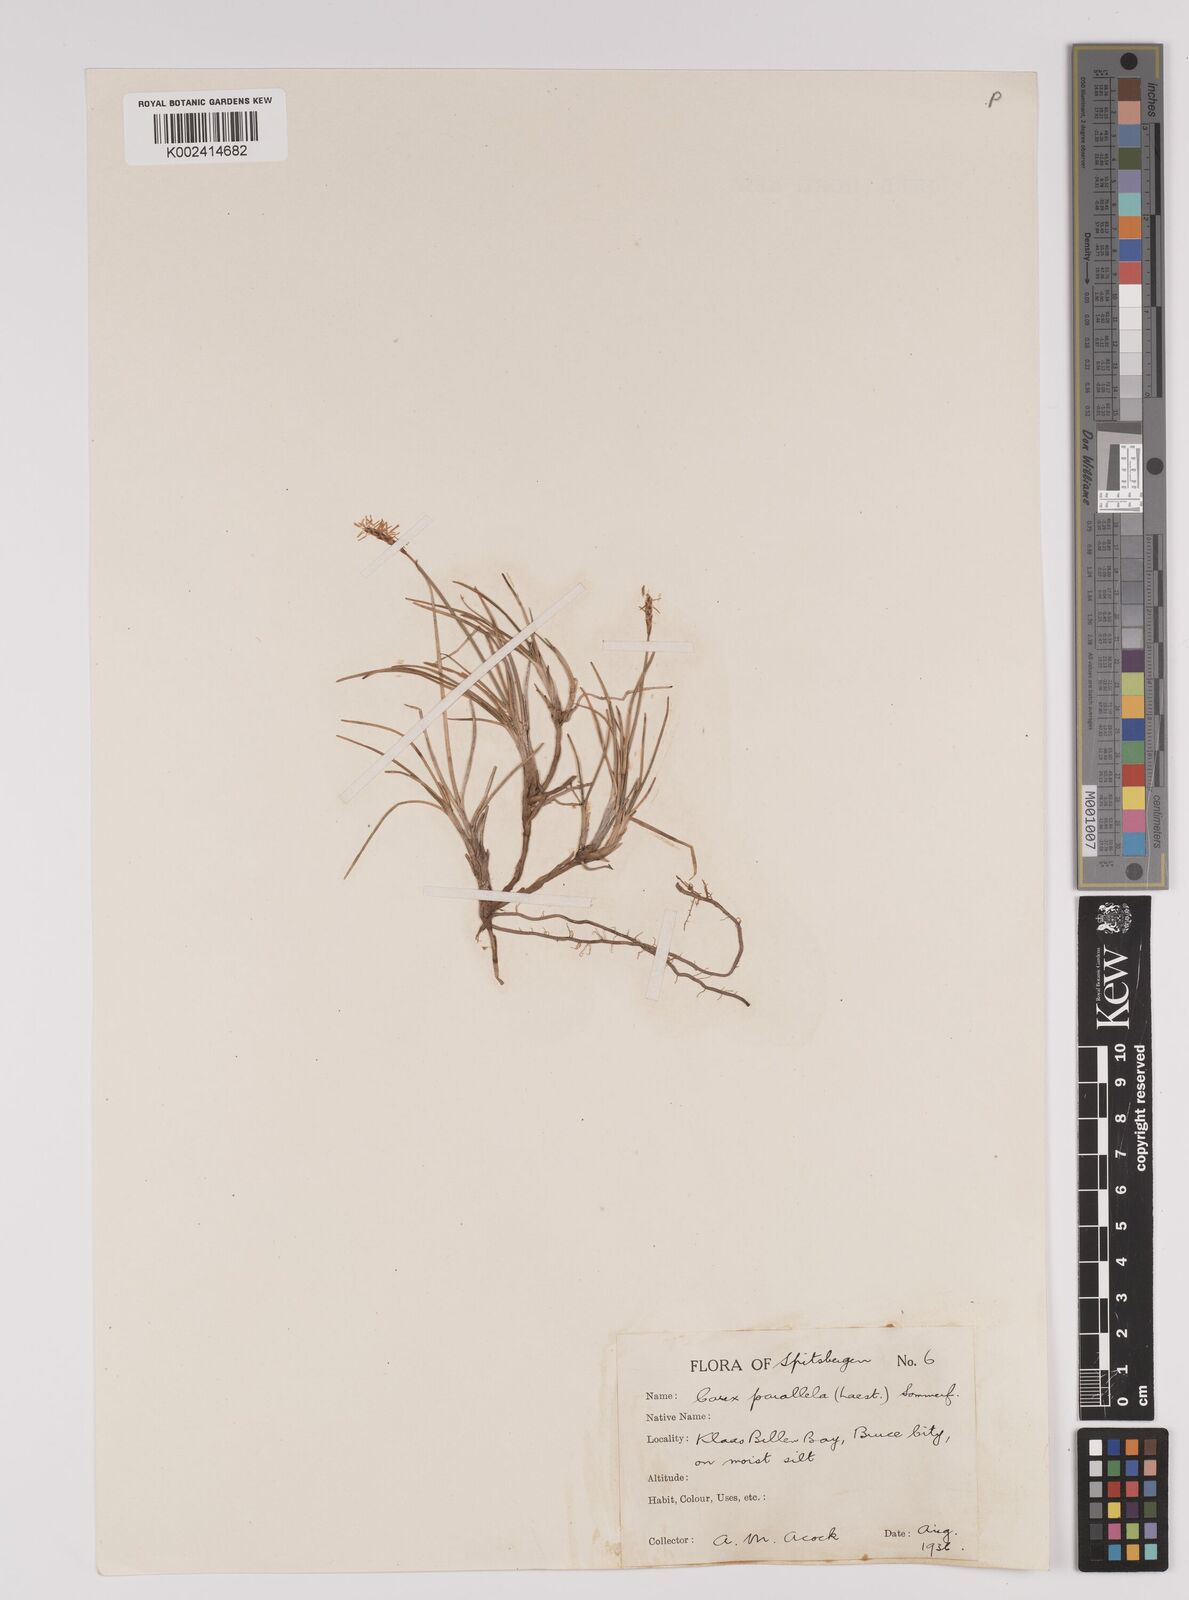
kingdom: Plantae
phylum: Tracheophyta
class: Liliopsida
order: Poales
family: Cyperaceae
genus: Carex
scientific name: Carex parallela
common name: Parallel sedge
